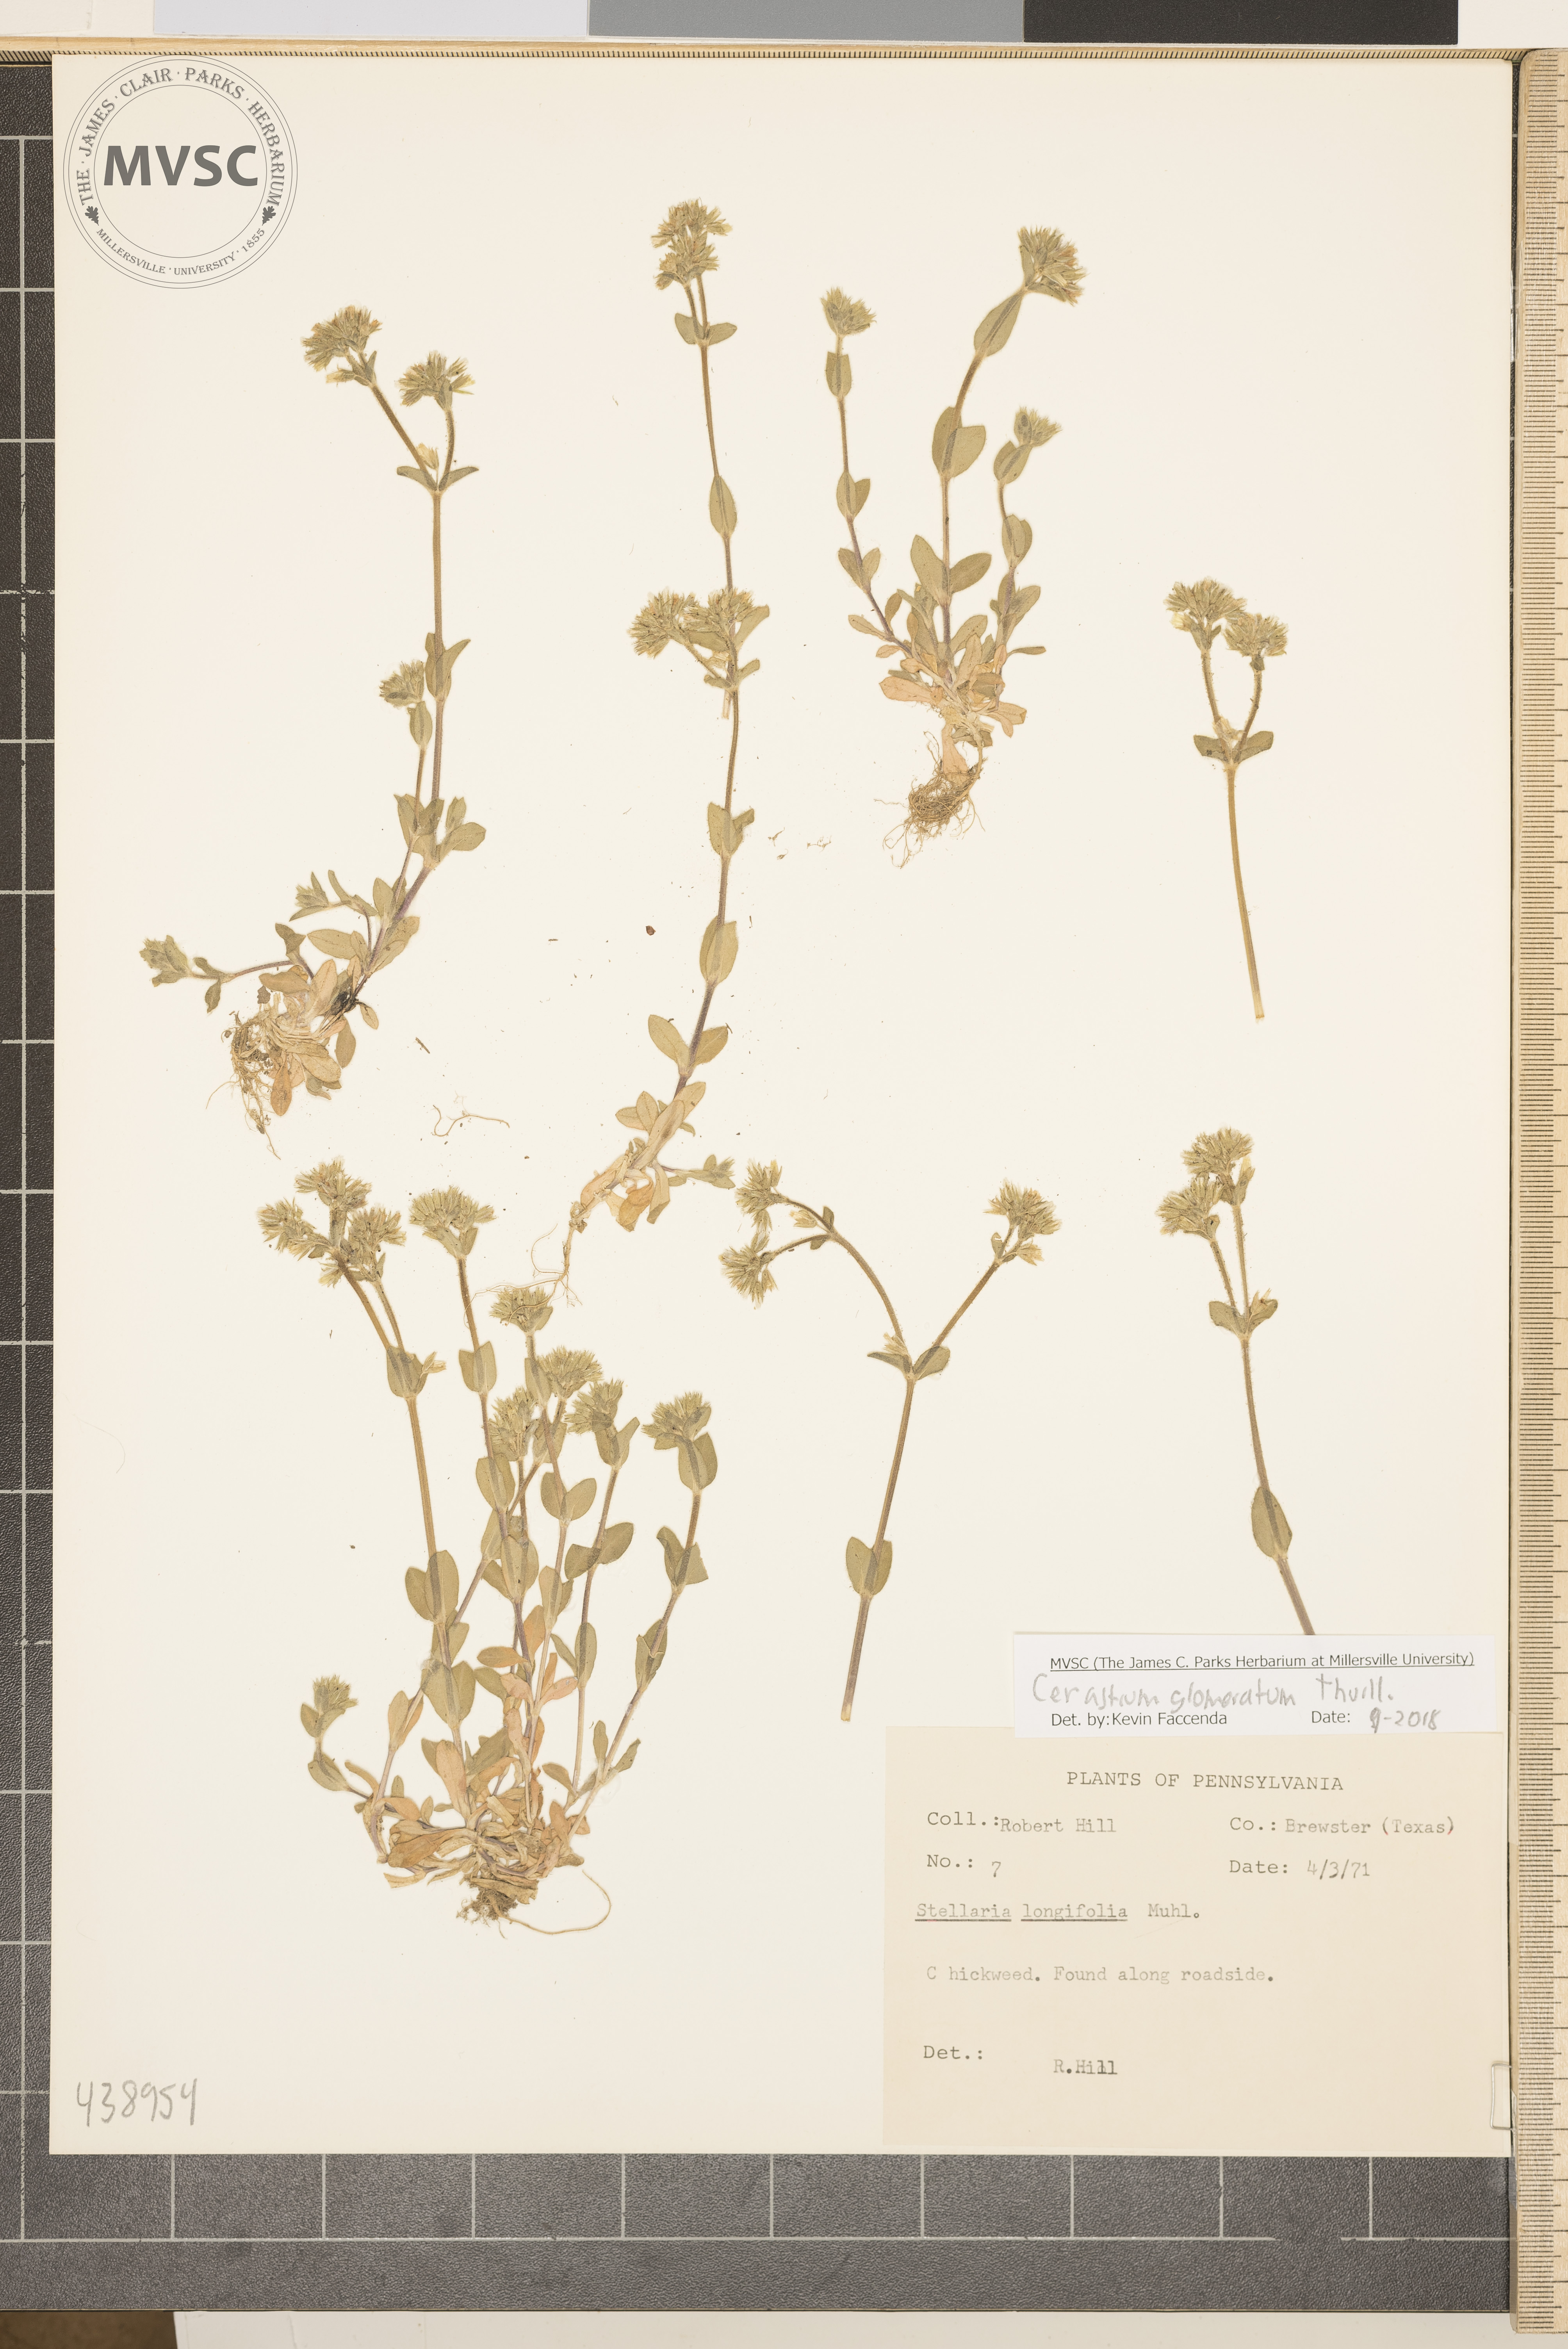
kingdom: Plantae
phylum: Tracheophyta
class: Magnoliopsida
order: Caryophyllales
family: Caryophyllaceae
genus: Cerastium
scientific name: Cerastium glomeratum
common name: Chickweed
